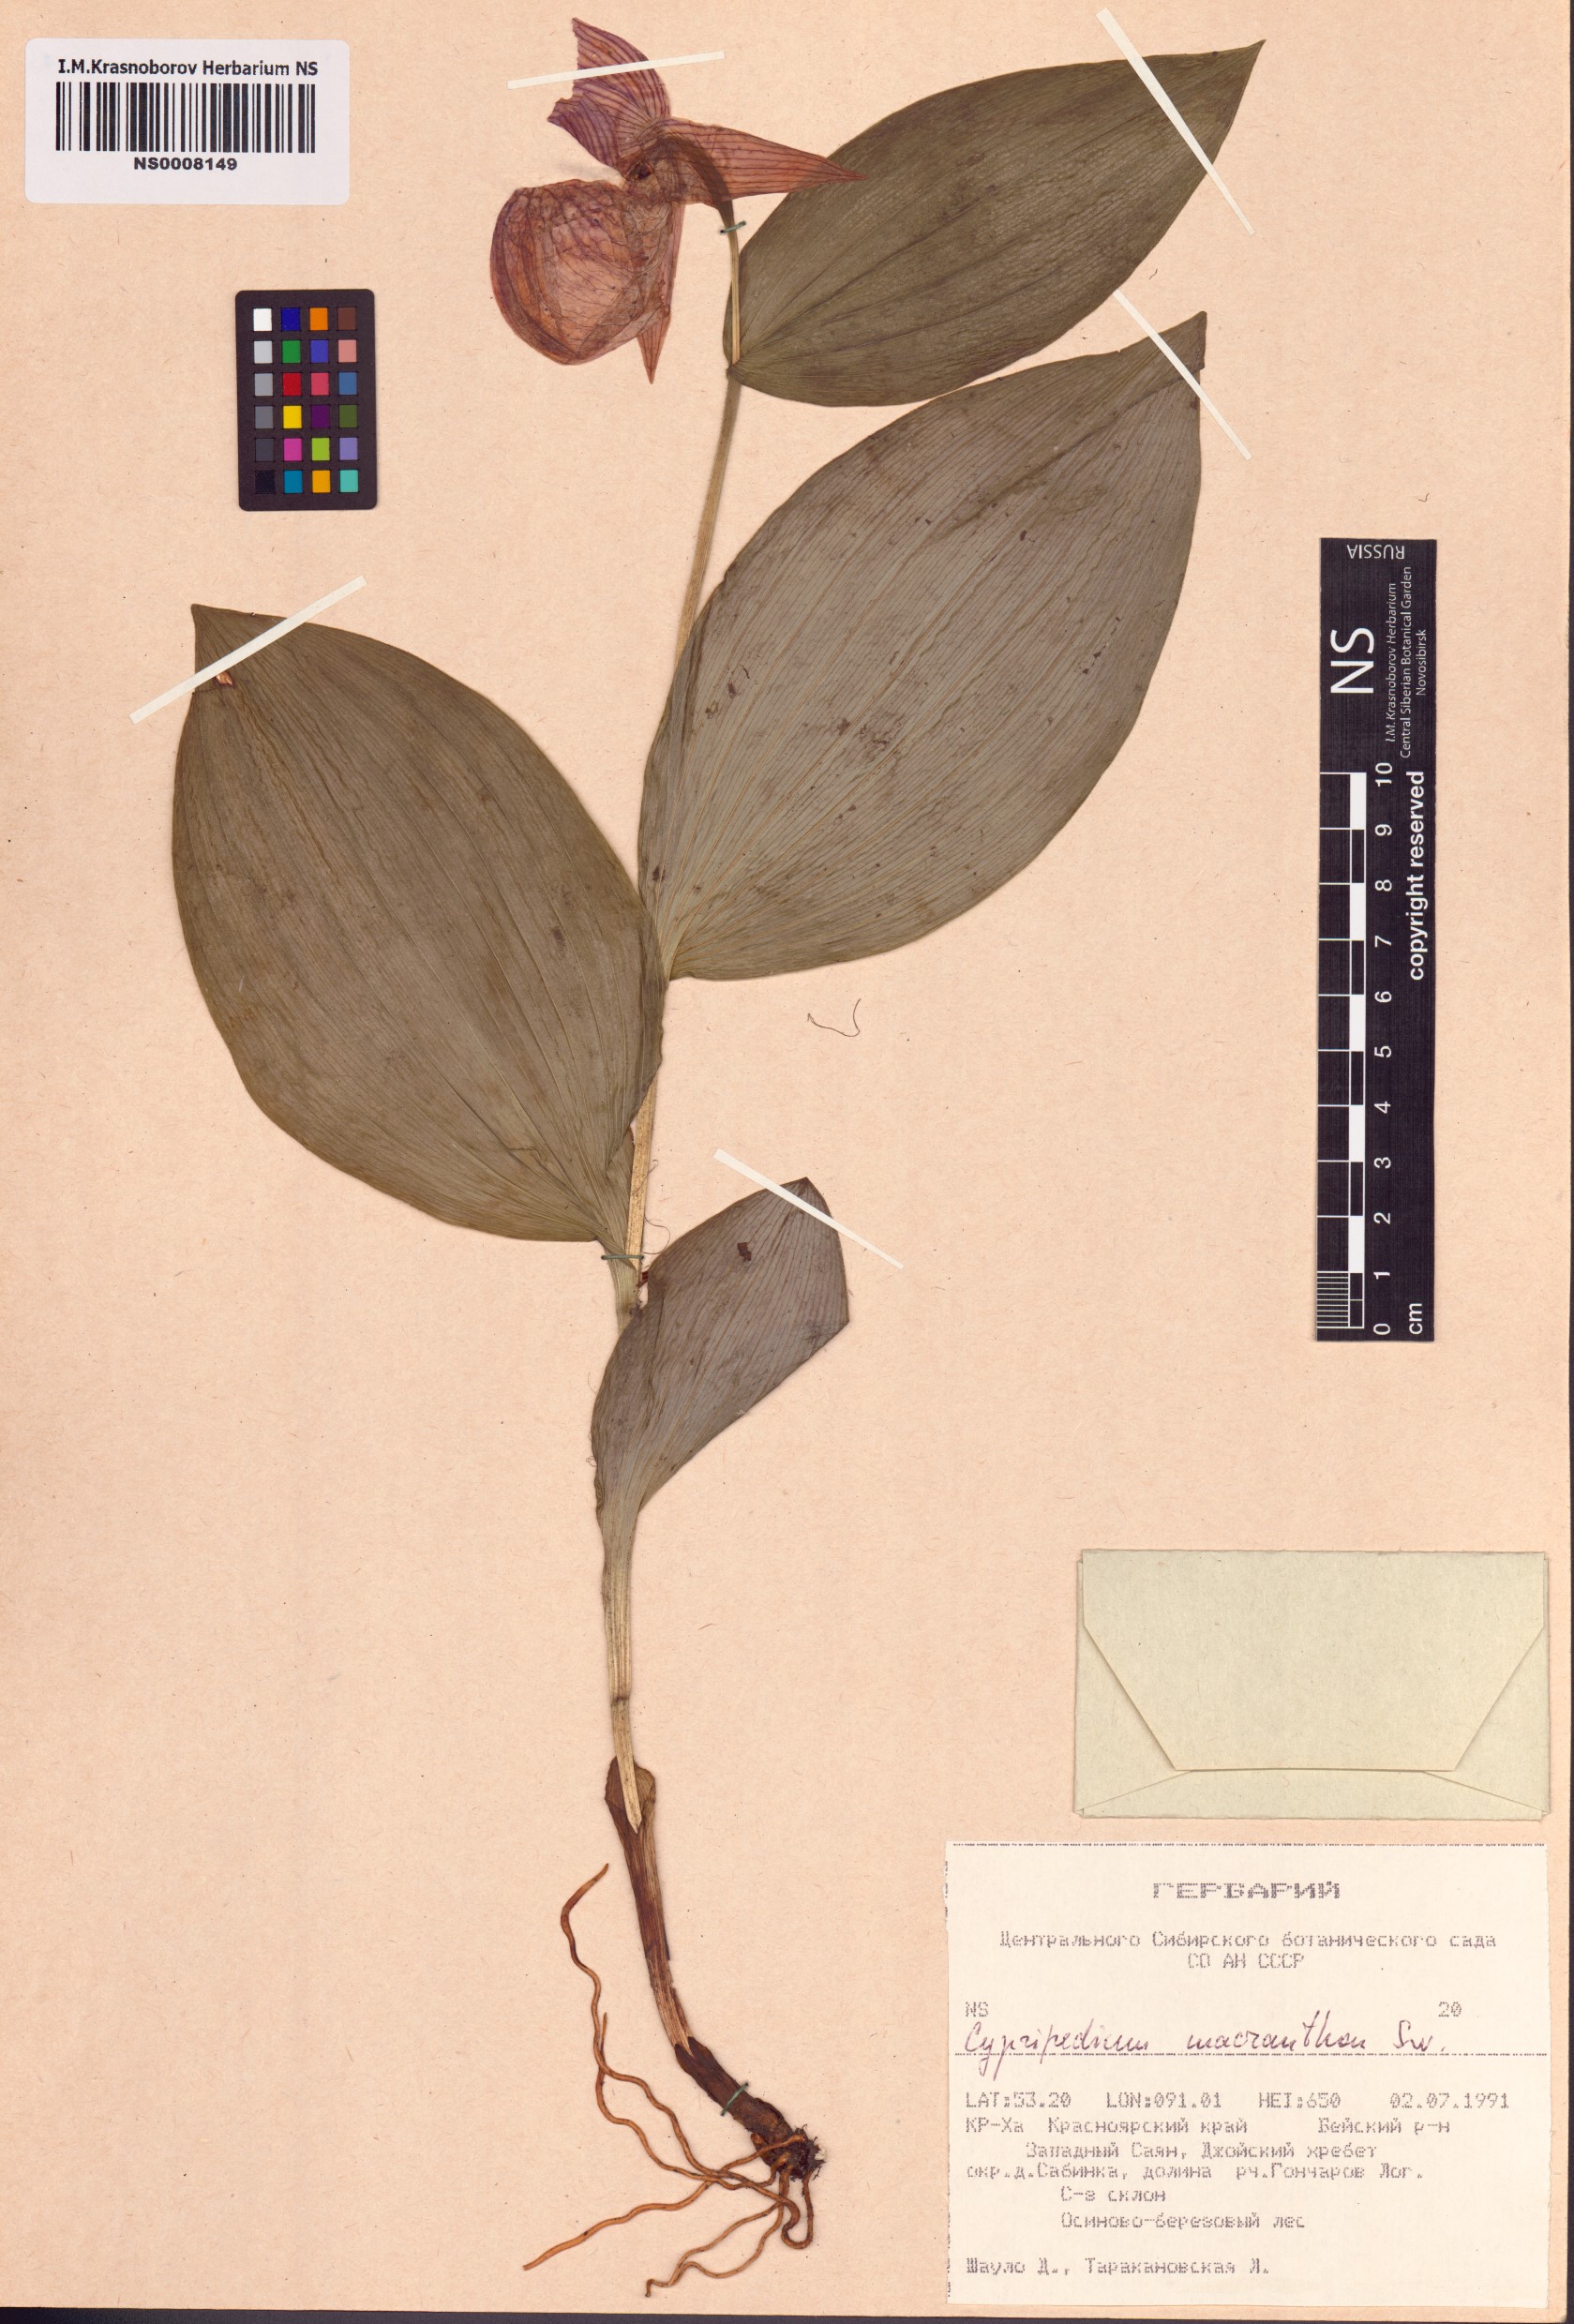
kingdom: Plantae
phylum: Tracheophyta
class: Liliopsida
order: Asparagales
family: Orchidaceae
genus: Cypripedium
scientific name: Cypripedium macranthos
